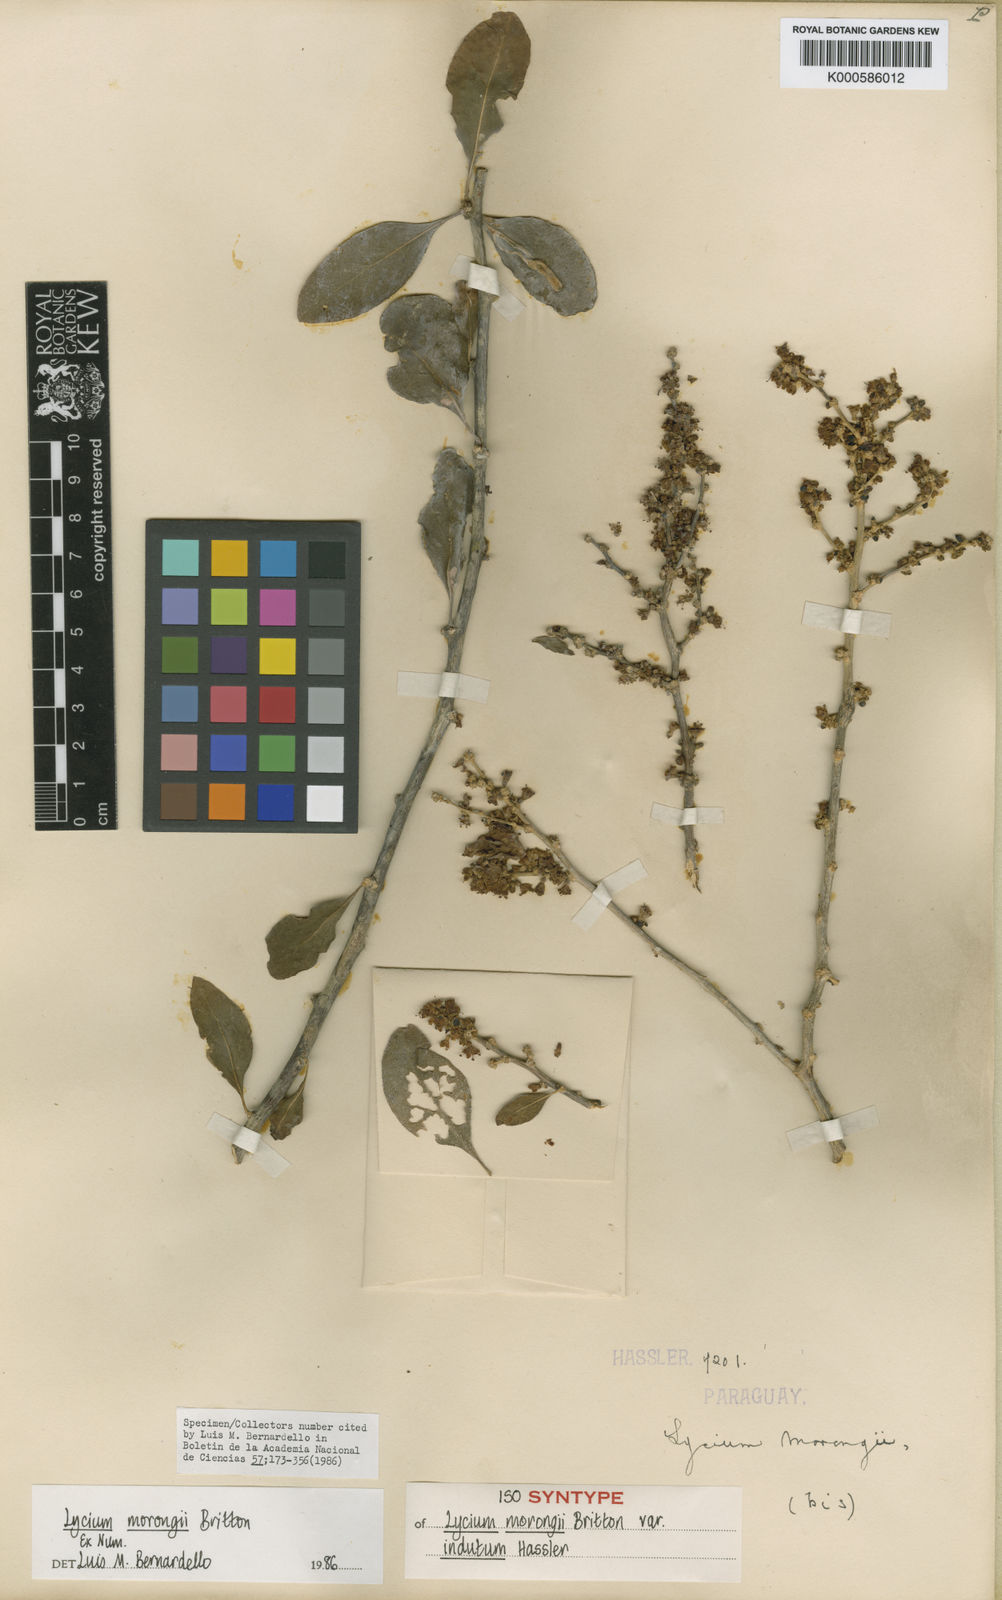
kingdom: Plantae
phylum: Tracheophyta
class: Magnoliopsida
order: Solanales
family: Solanaceae
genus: Lycium
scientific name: Lycium glomeratum
